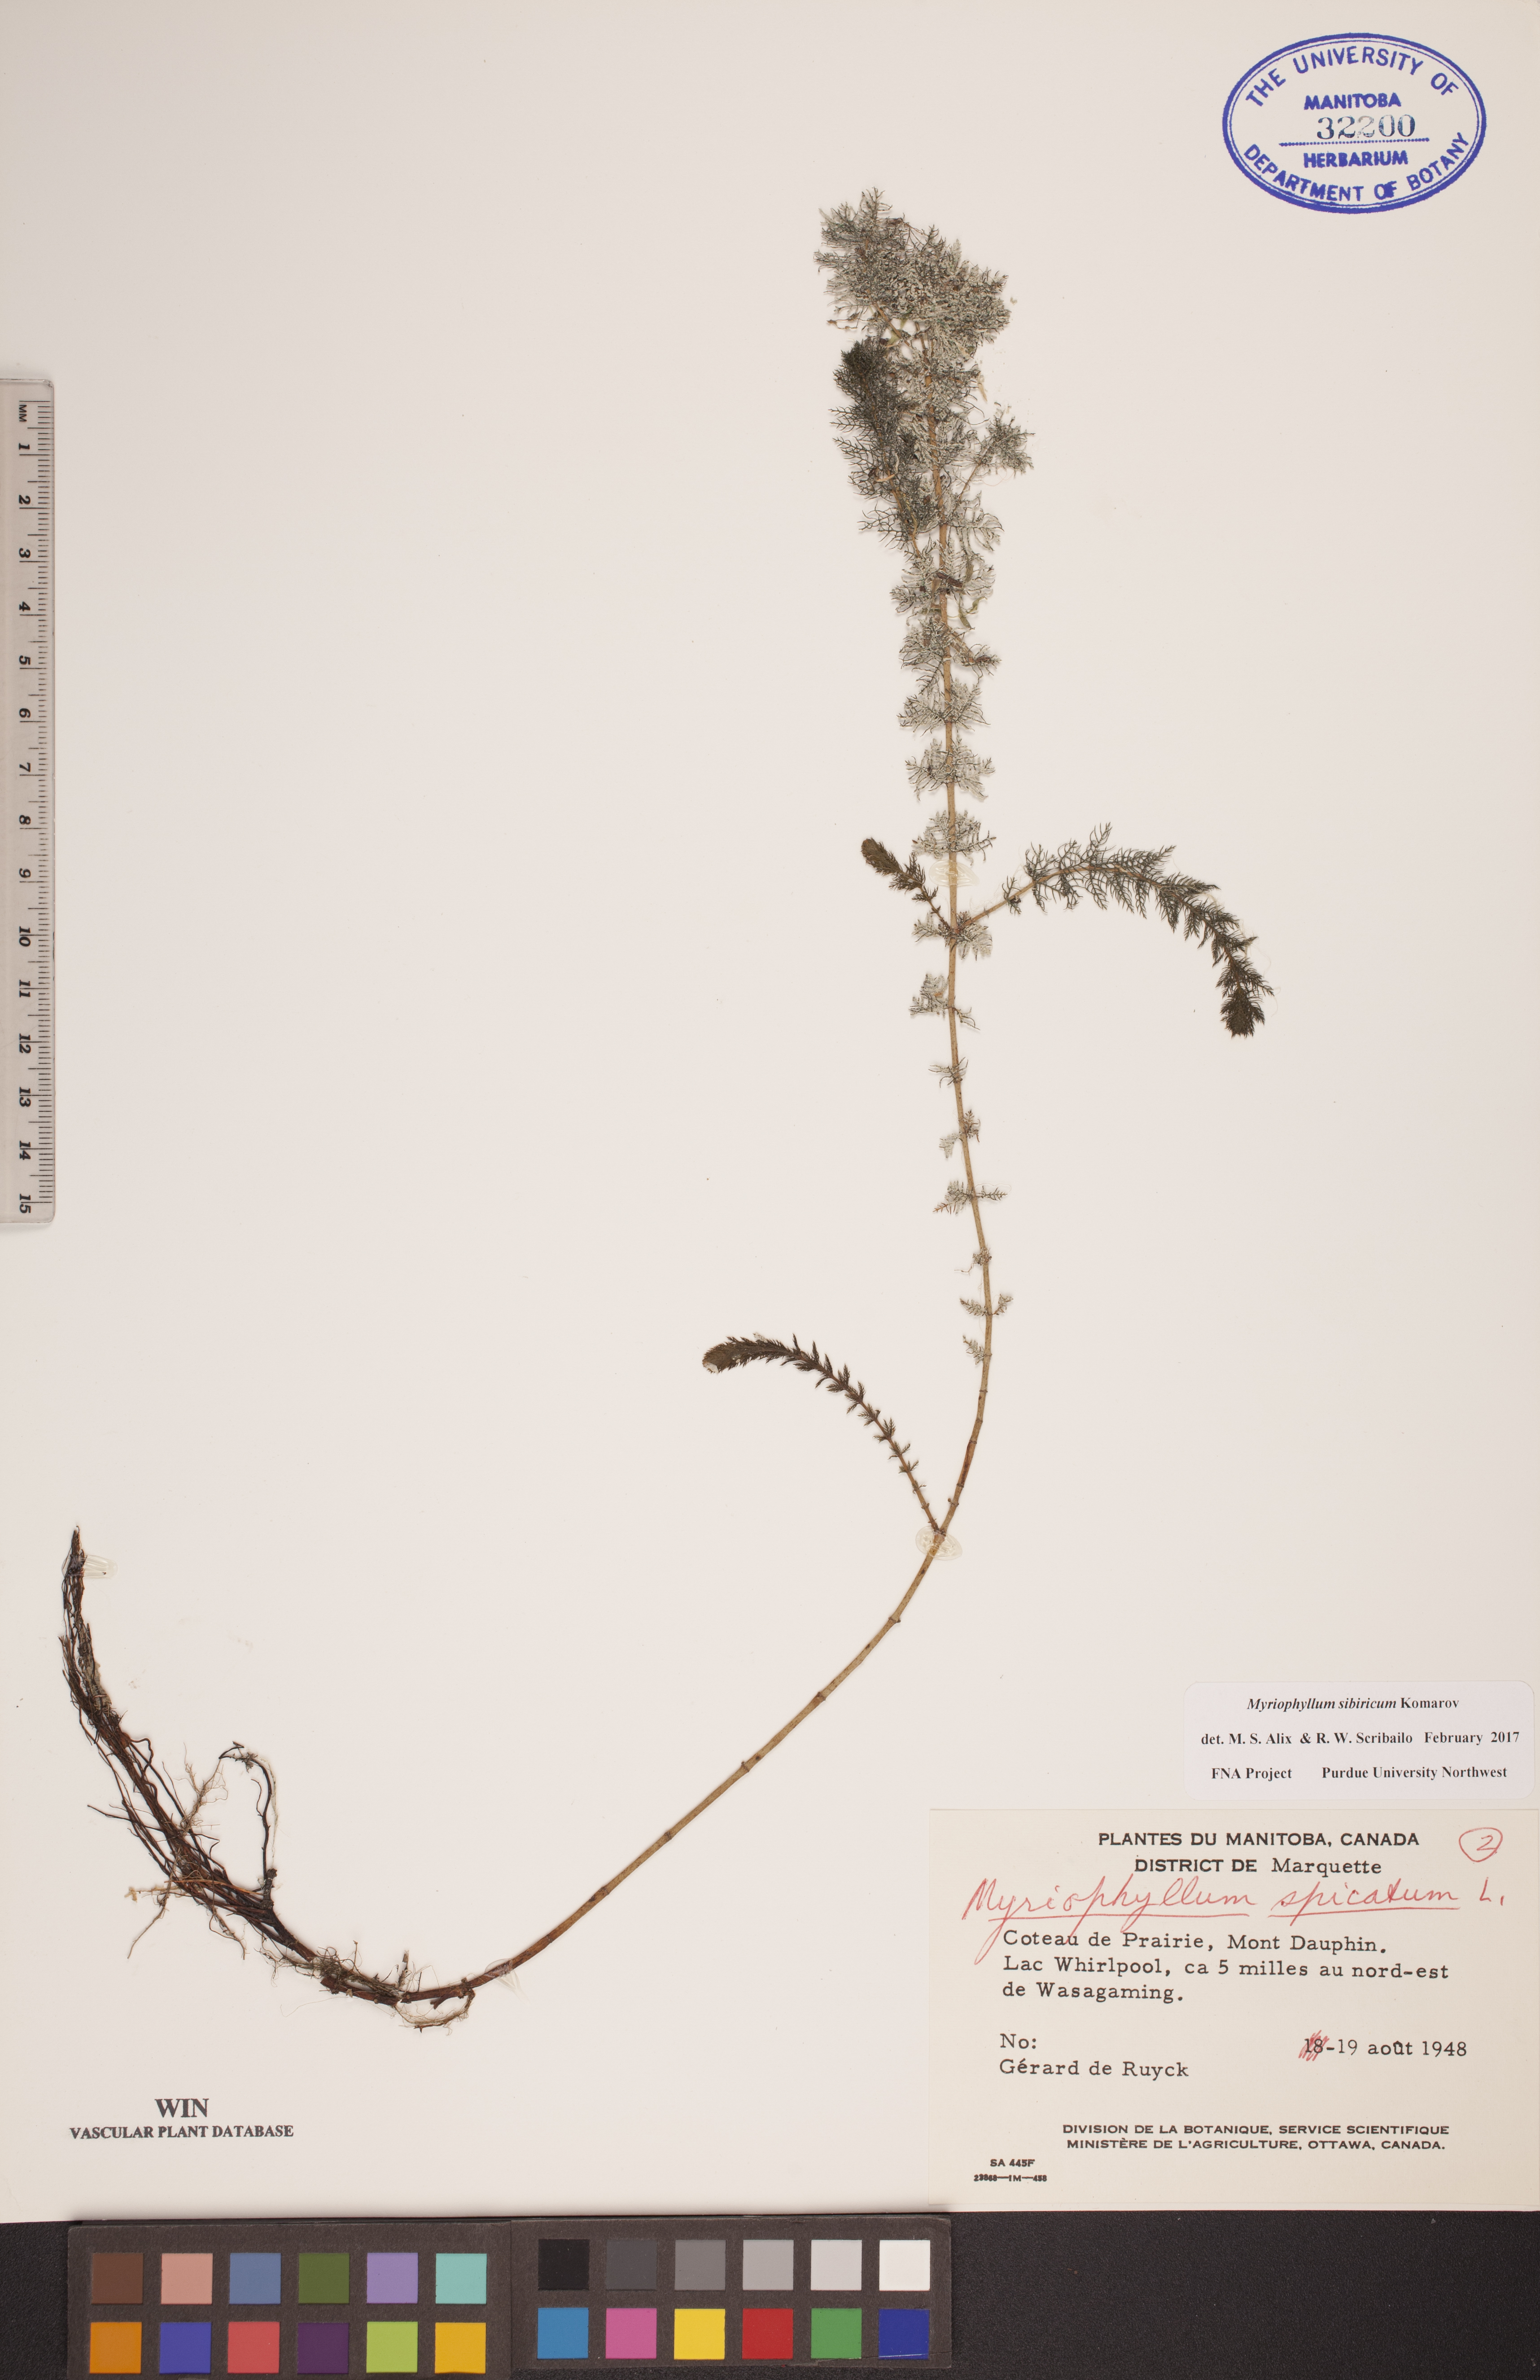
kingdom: Plantae
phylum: Tracheophyta
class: Magnoliopsida
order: Saxifragales
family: Haloragaceae
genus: Myriophyllum
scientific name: Myriophyllum sibiricum
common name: Siberian water-milfoil
